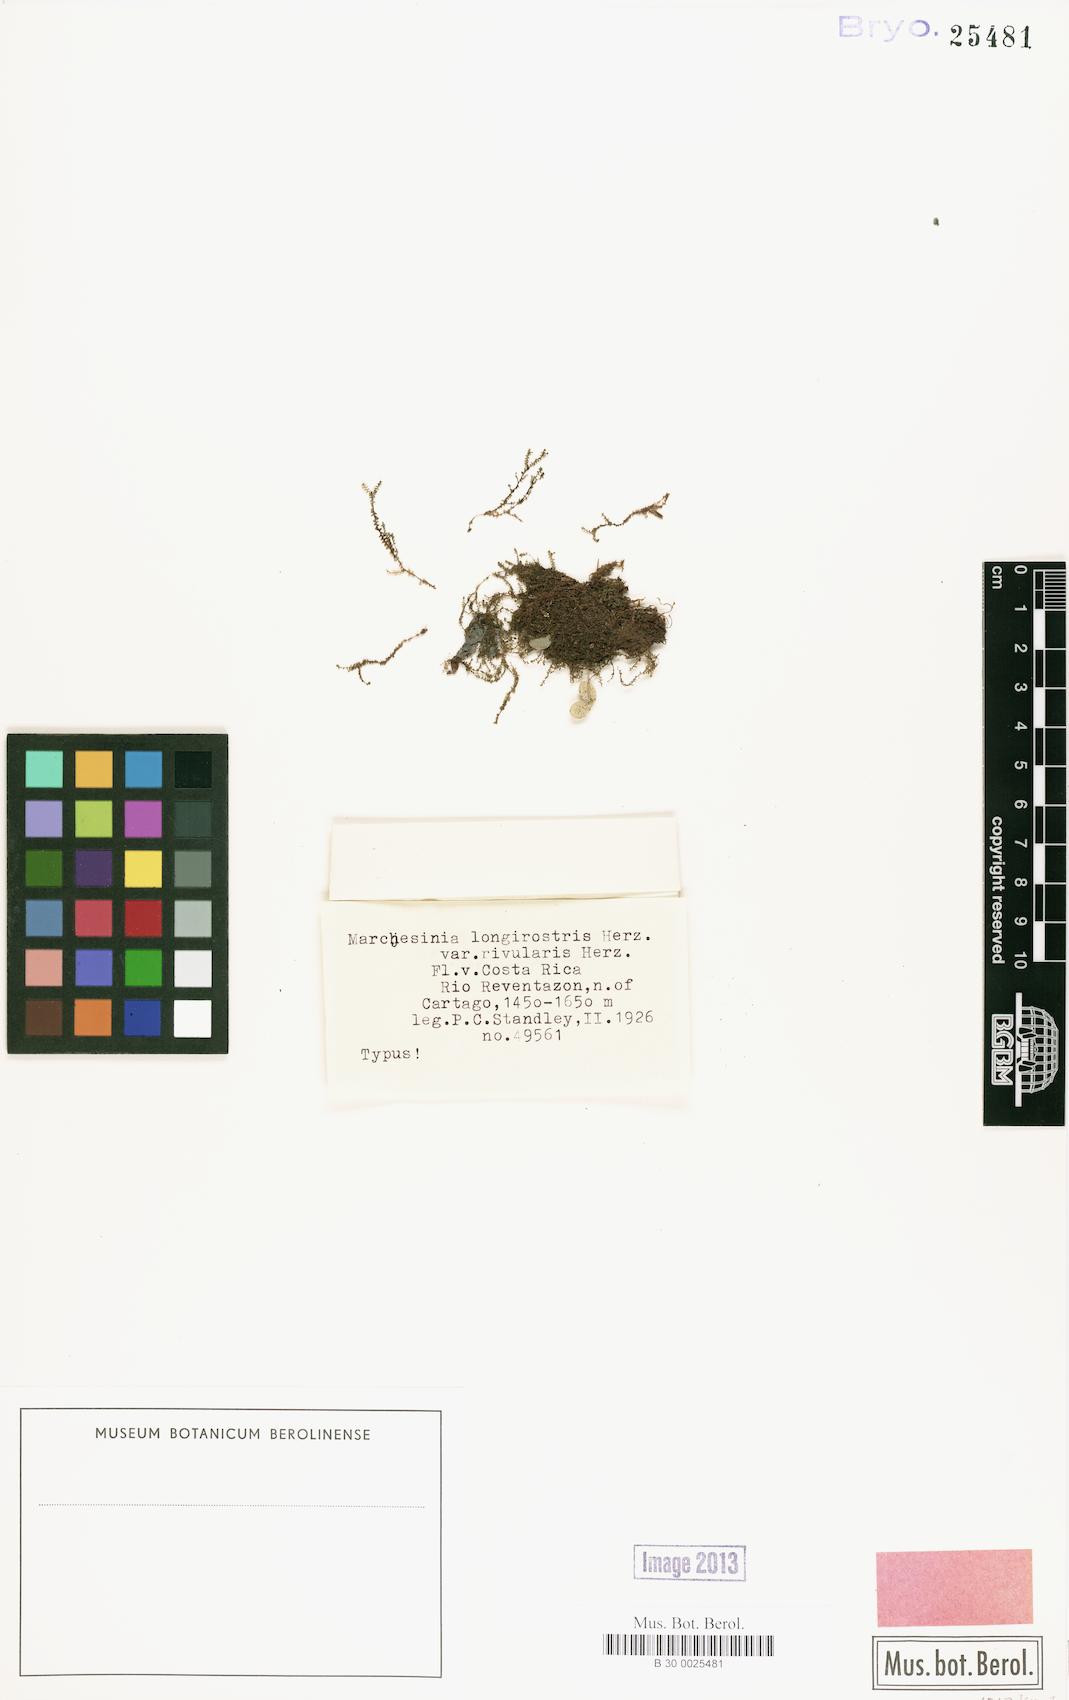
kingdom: Plantae
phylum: Marchantiophyta
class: Jungermanniopsida
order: Porellales
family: Lejeuneaceae
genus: Marchesinia
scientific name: Marchesinia brachiata
